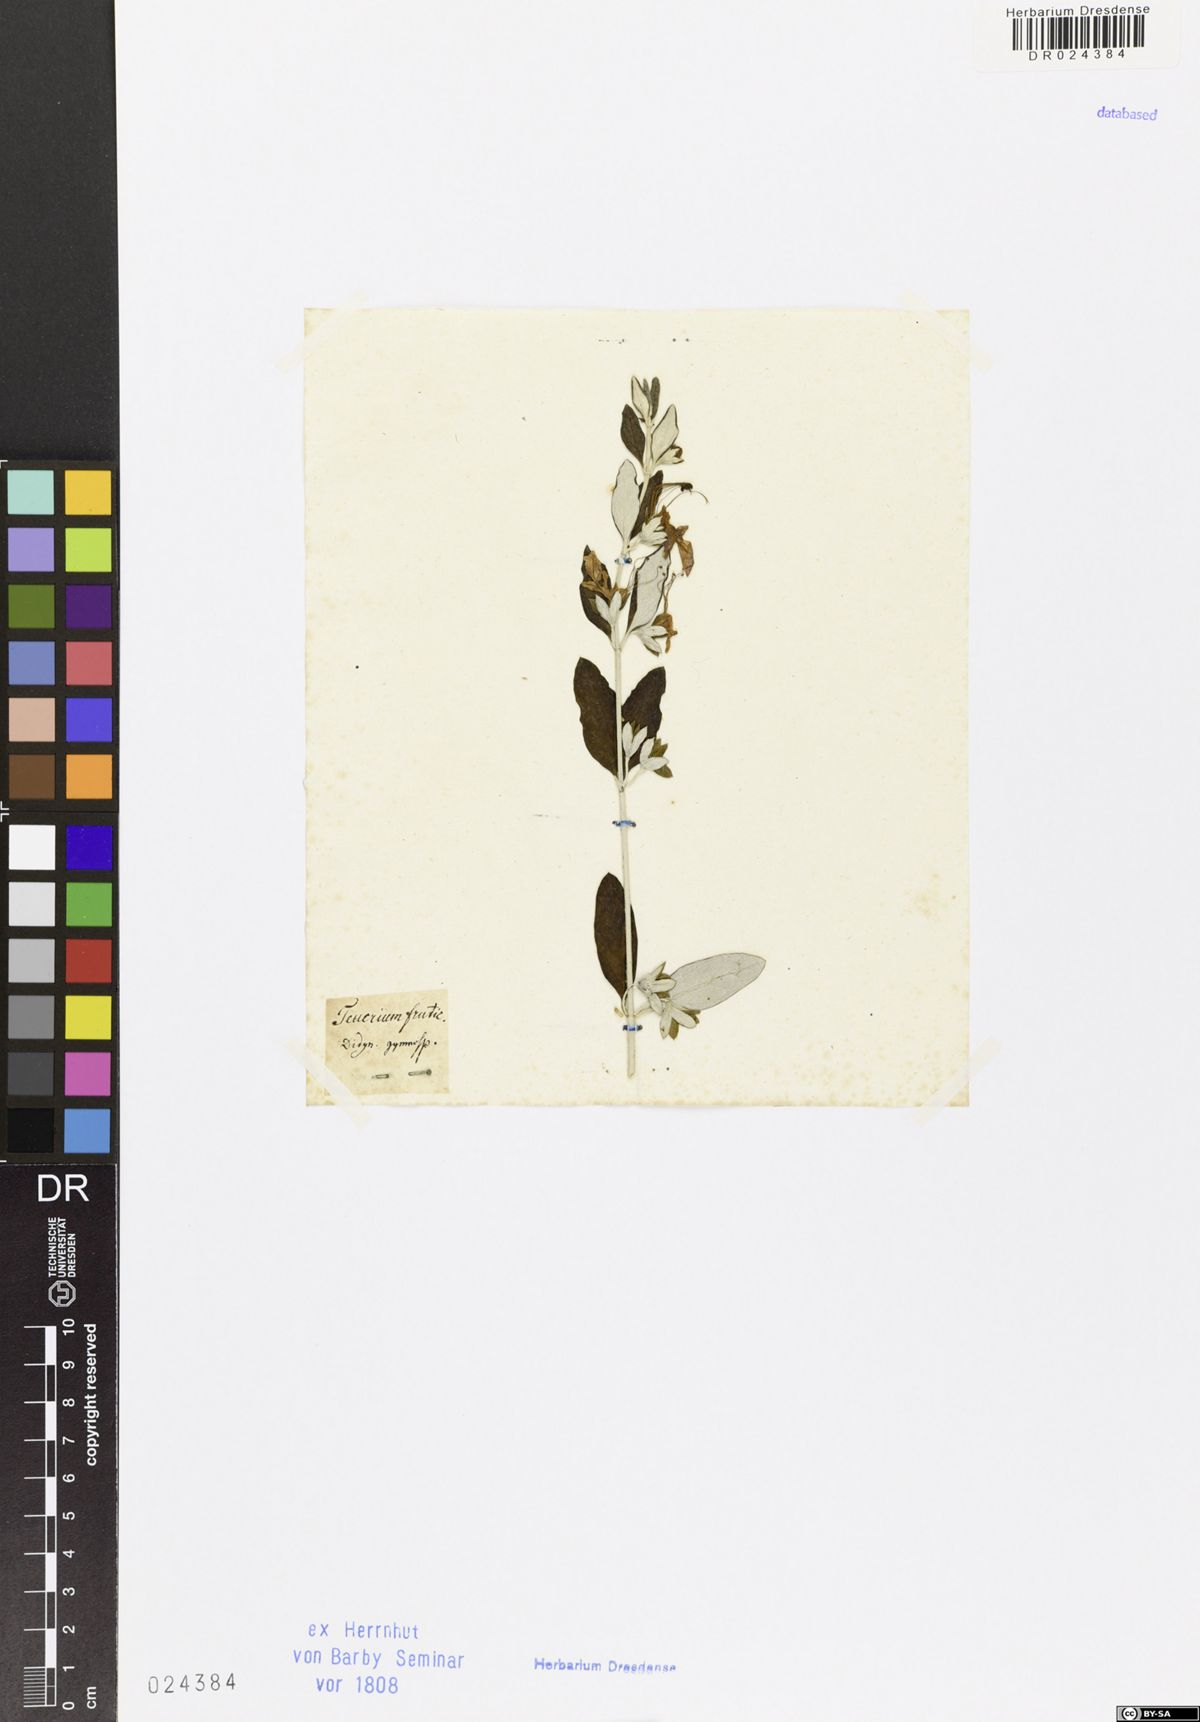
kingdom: Plantae
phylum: Tracheophyta
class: Magnoliopsida
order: Lamiales
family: Lamiaceae
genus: Teucrium
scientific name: Teucrium fruticans
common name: Shrubby germander
